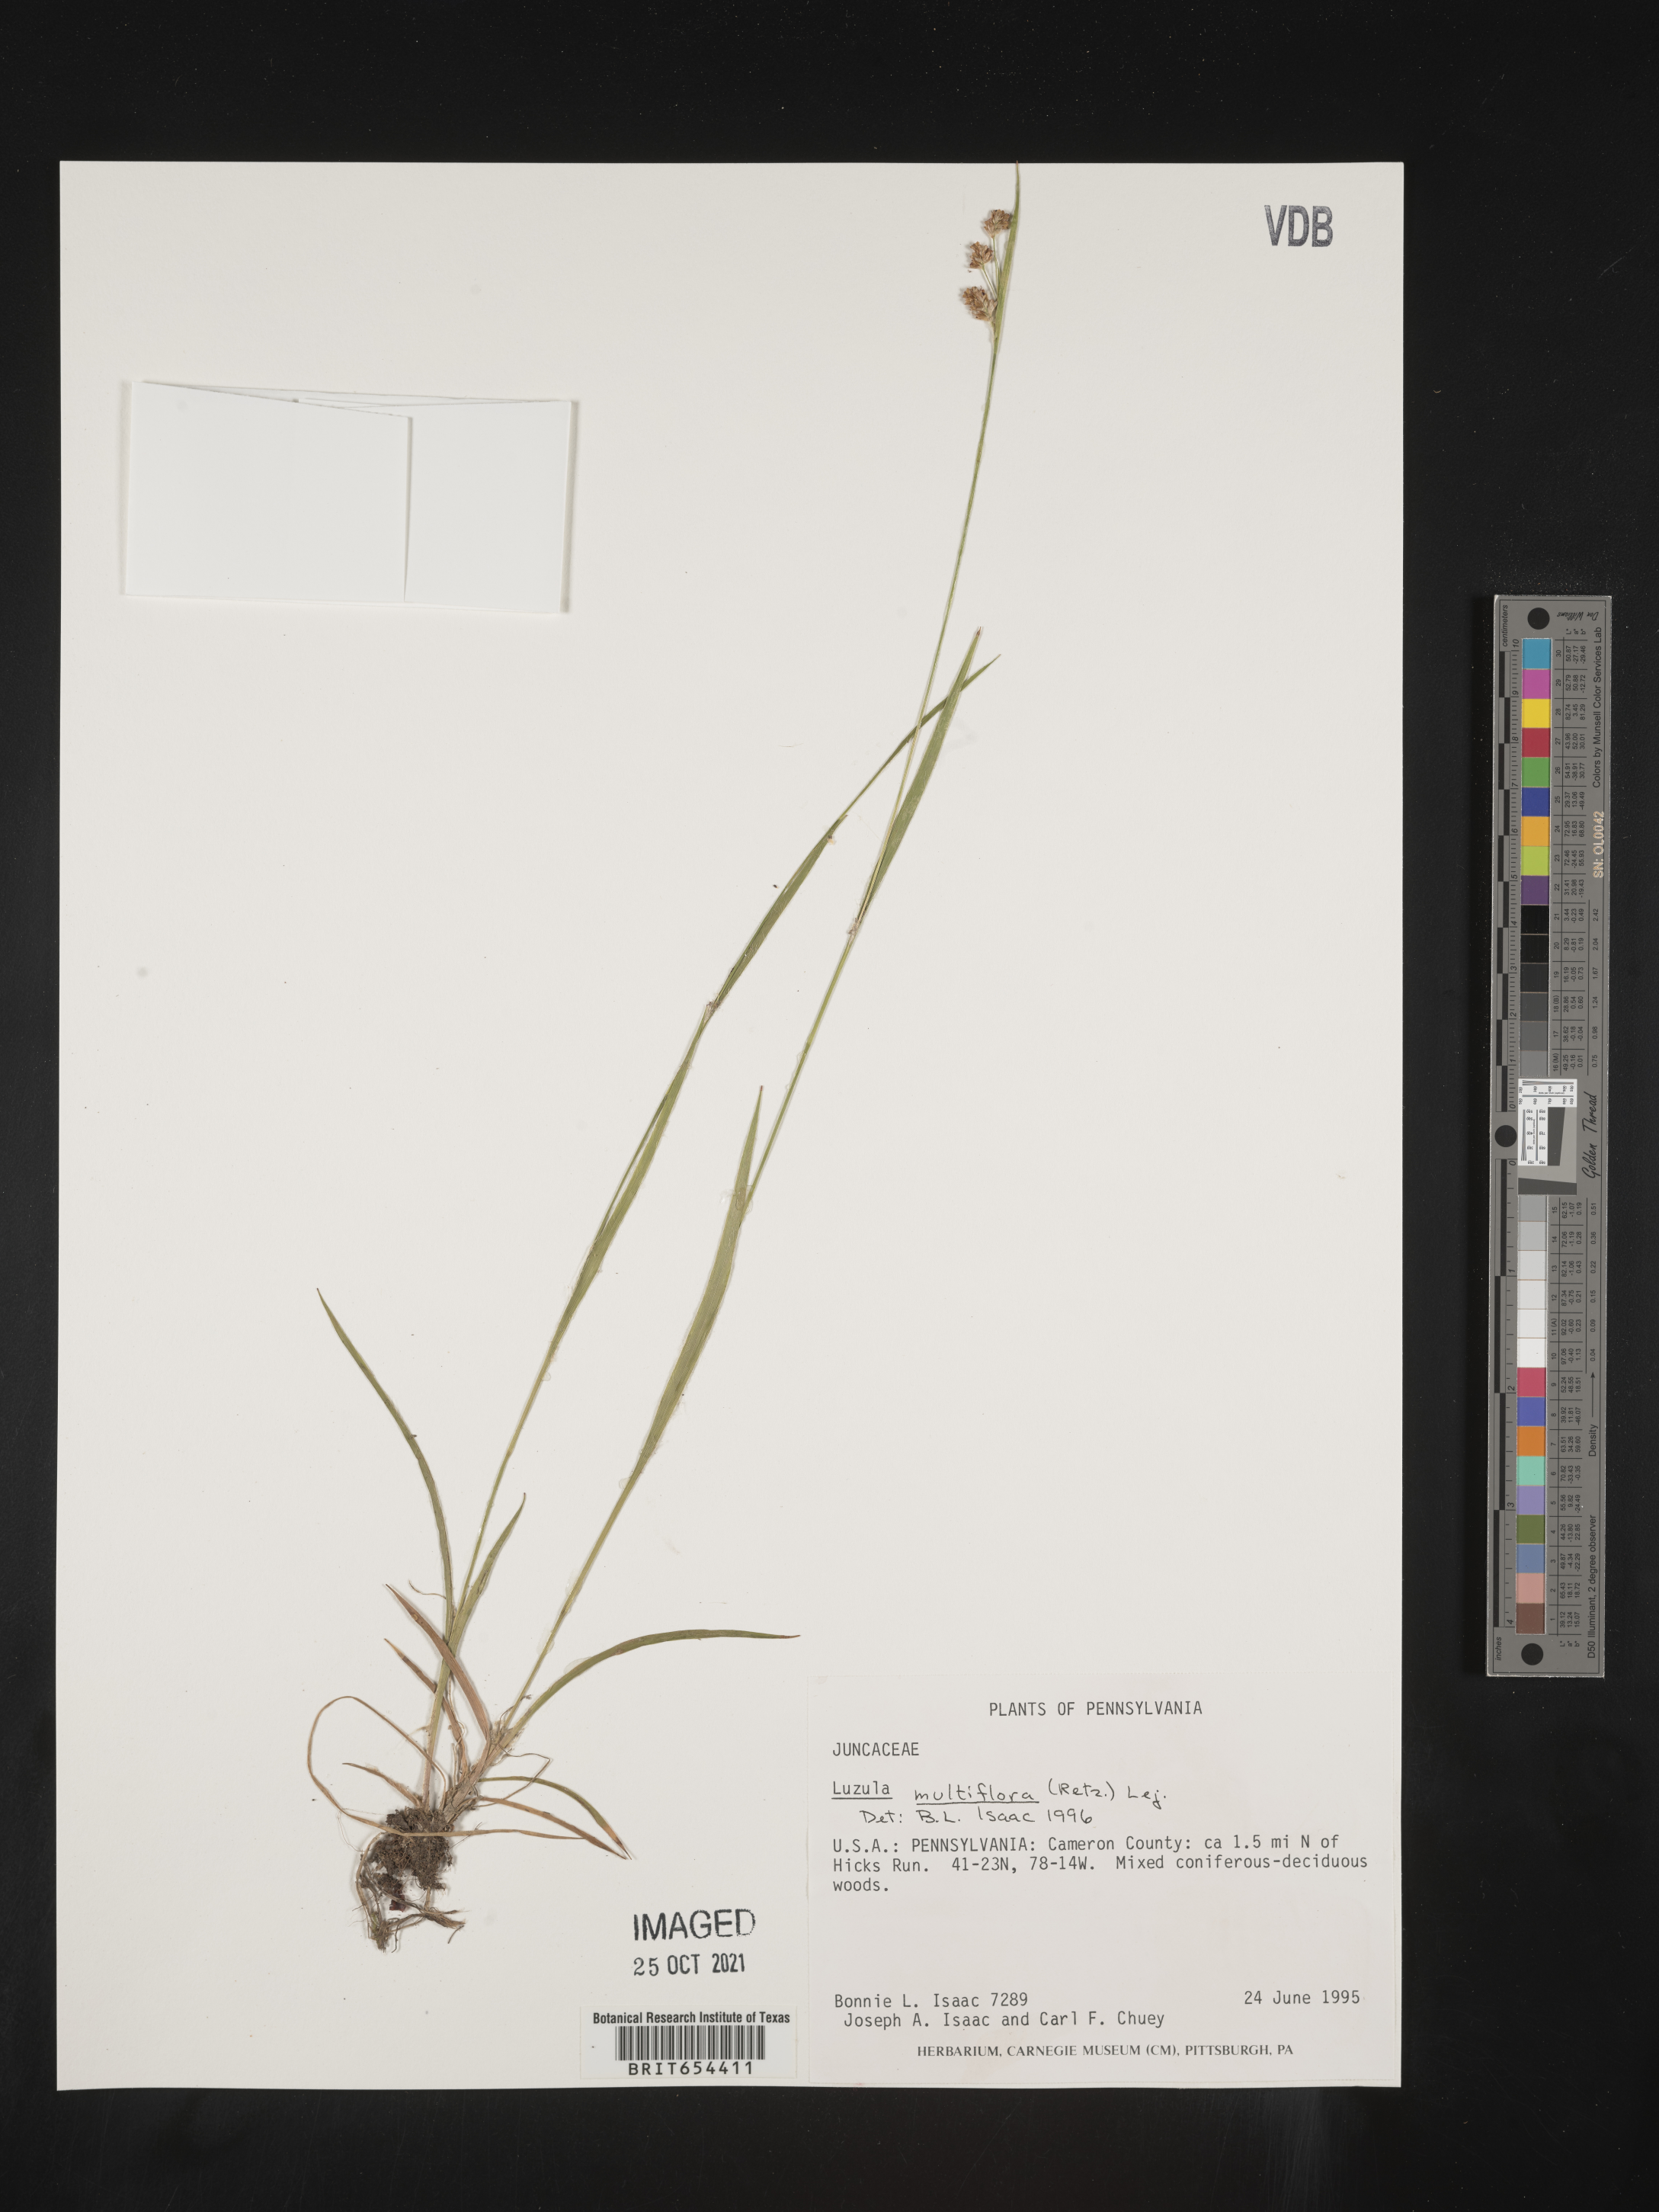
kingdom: Plantae
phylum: Tracheophyta
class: Liliopsida
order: Poales
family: Juncaceae
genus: Luzula
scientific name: Luzula multiflora
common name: Heath wood-rush
